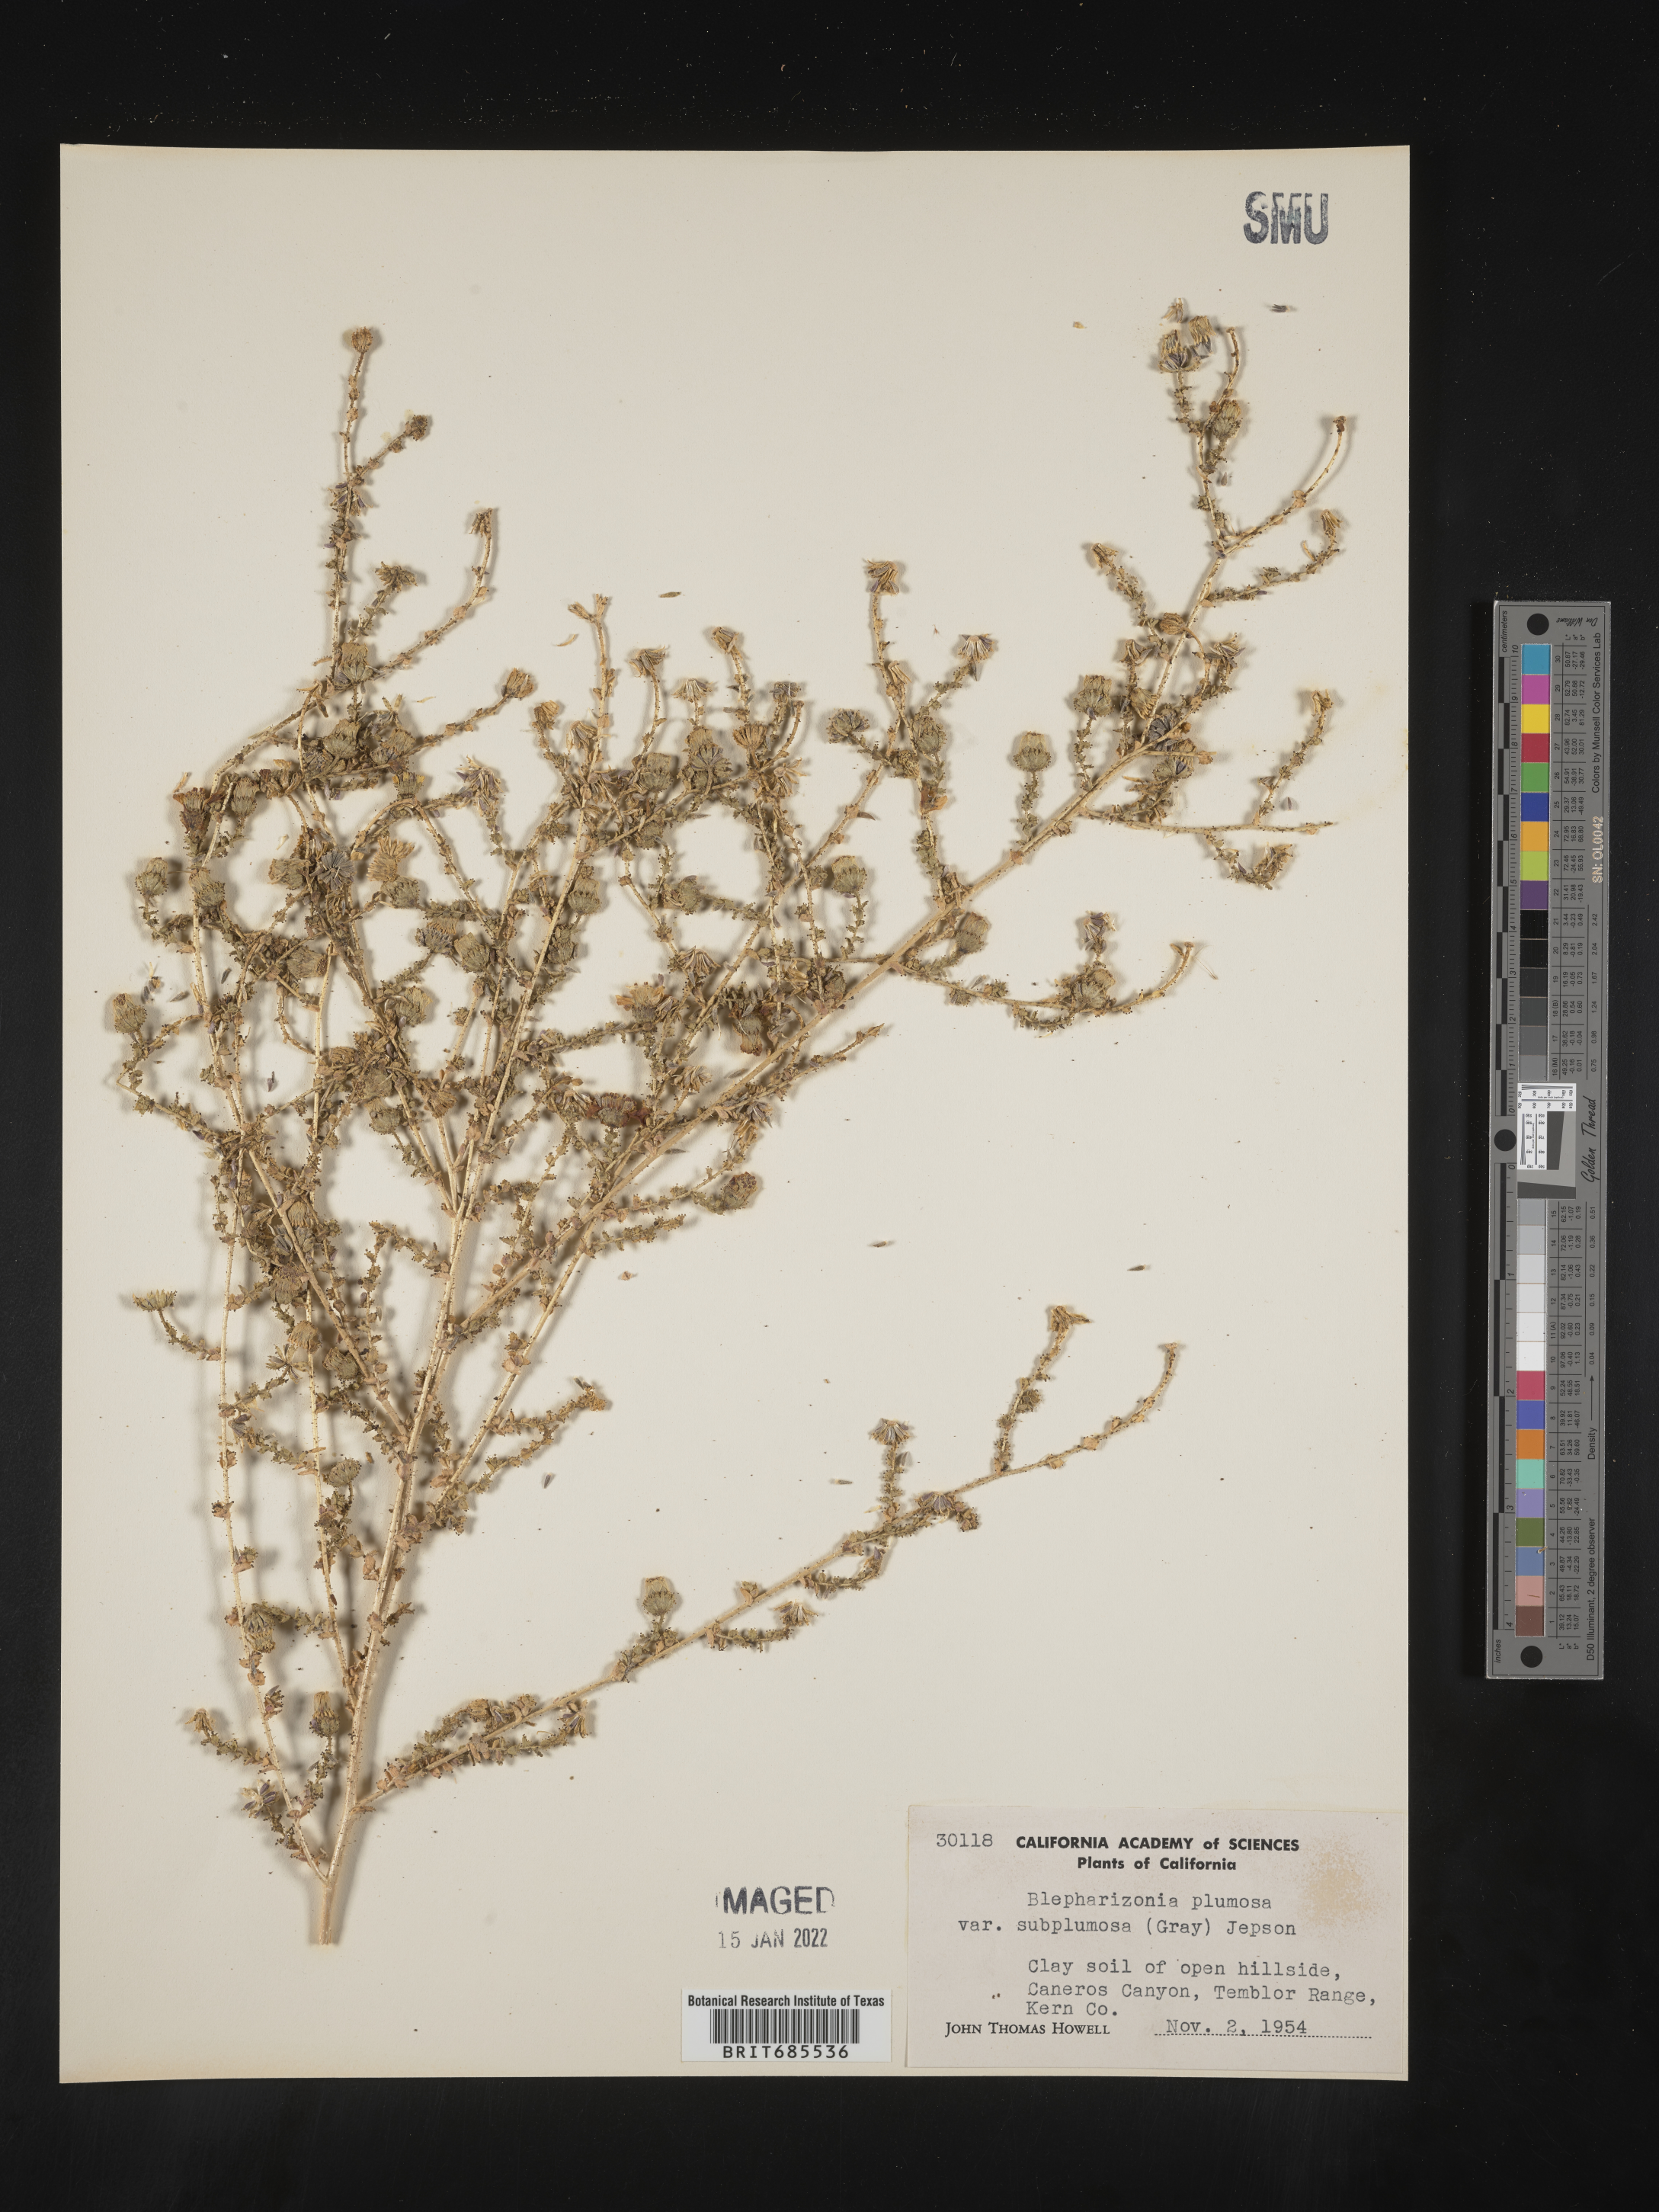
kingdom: Plantae
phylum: Tracheophyta
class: Magnoliopsida
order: Asterales
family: Asteraceae
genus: Blepharizonia
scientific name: Blepharizonia
